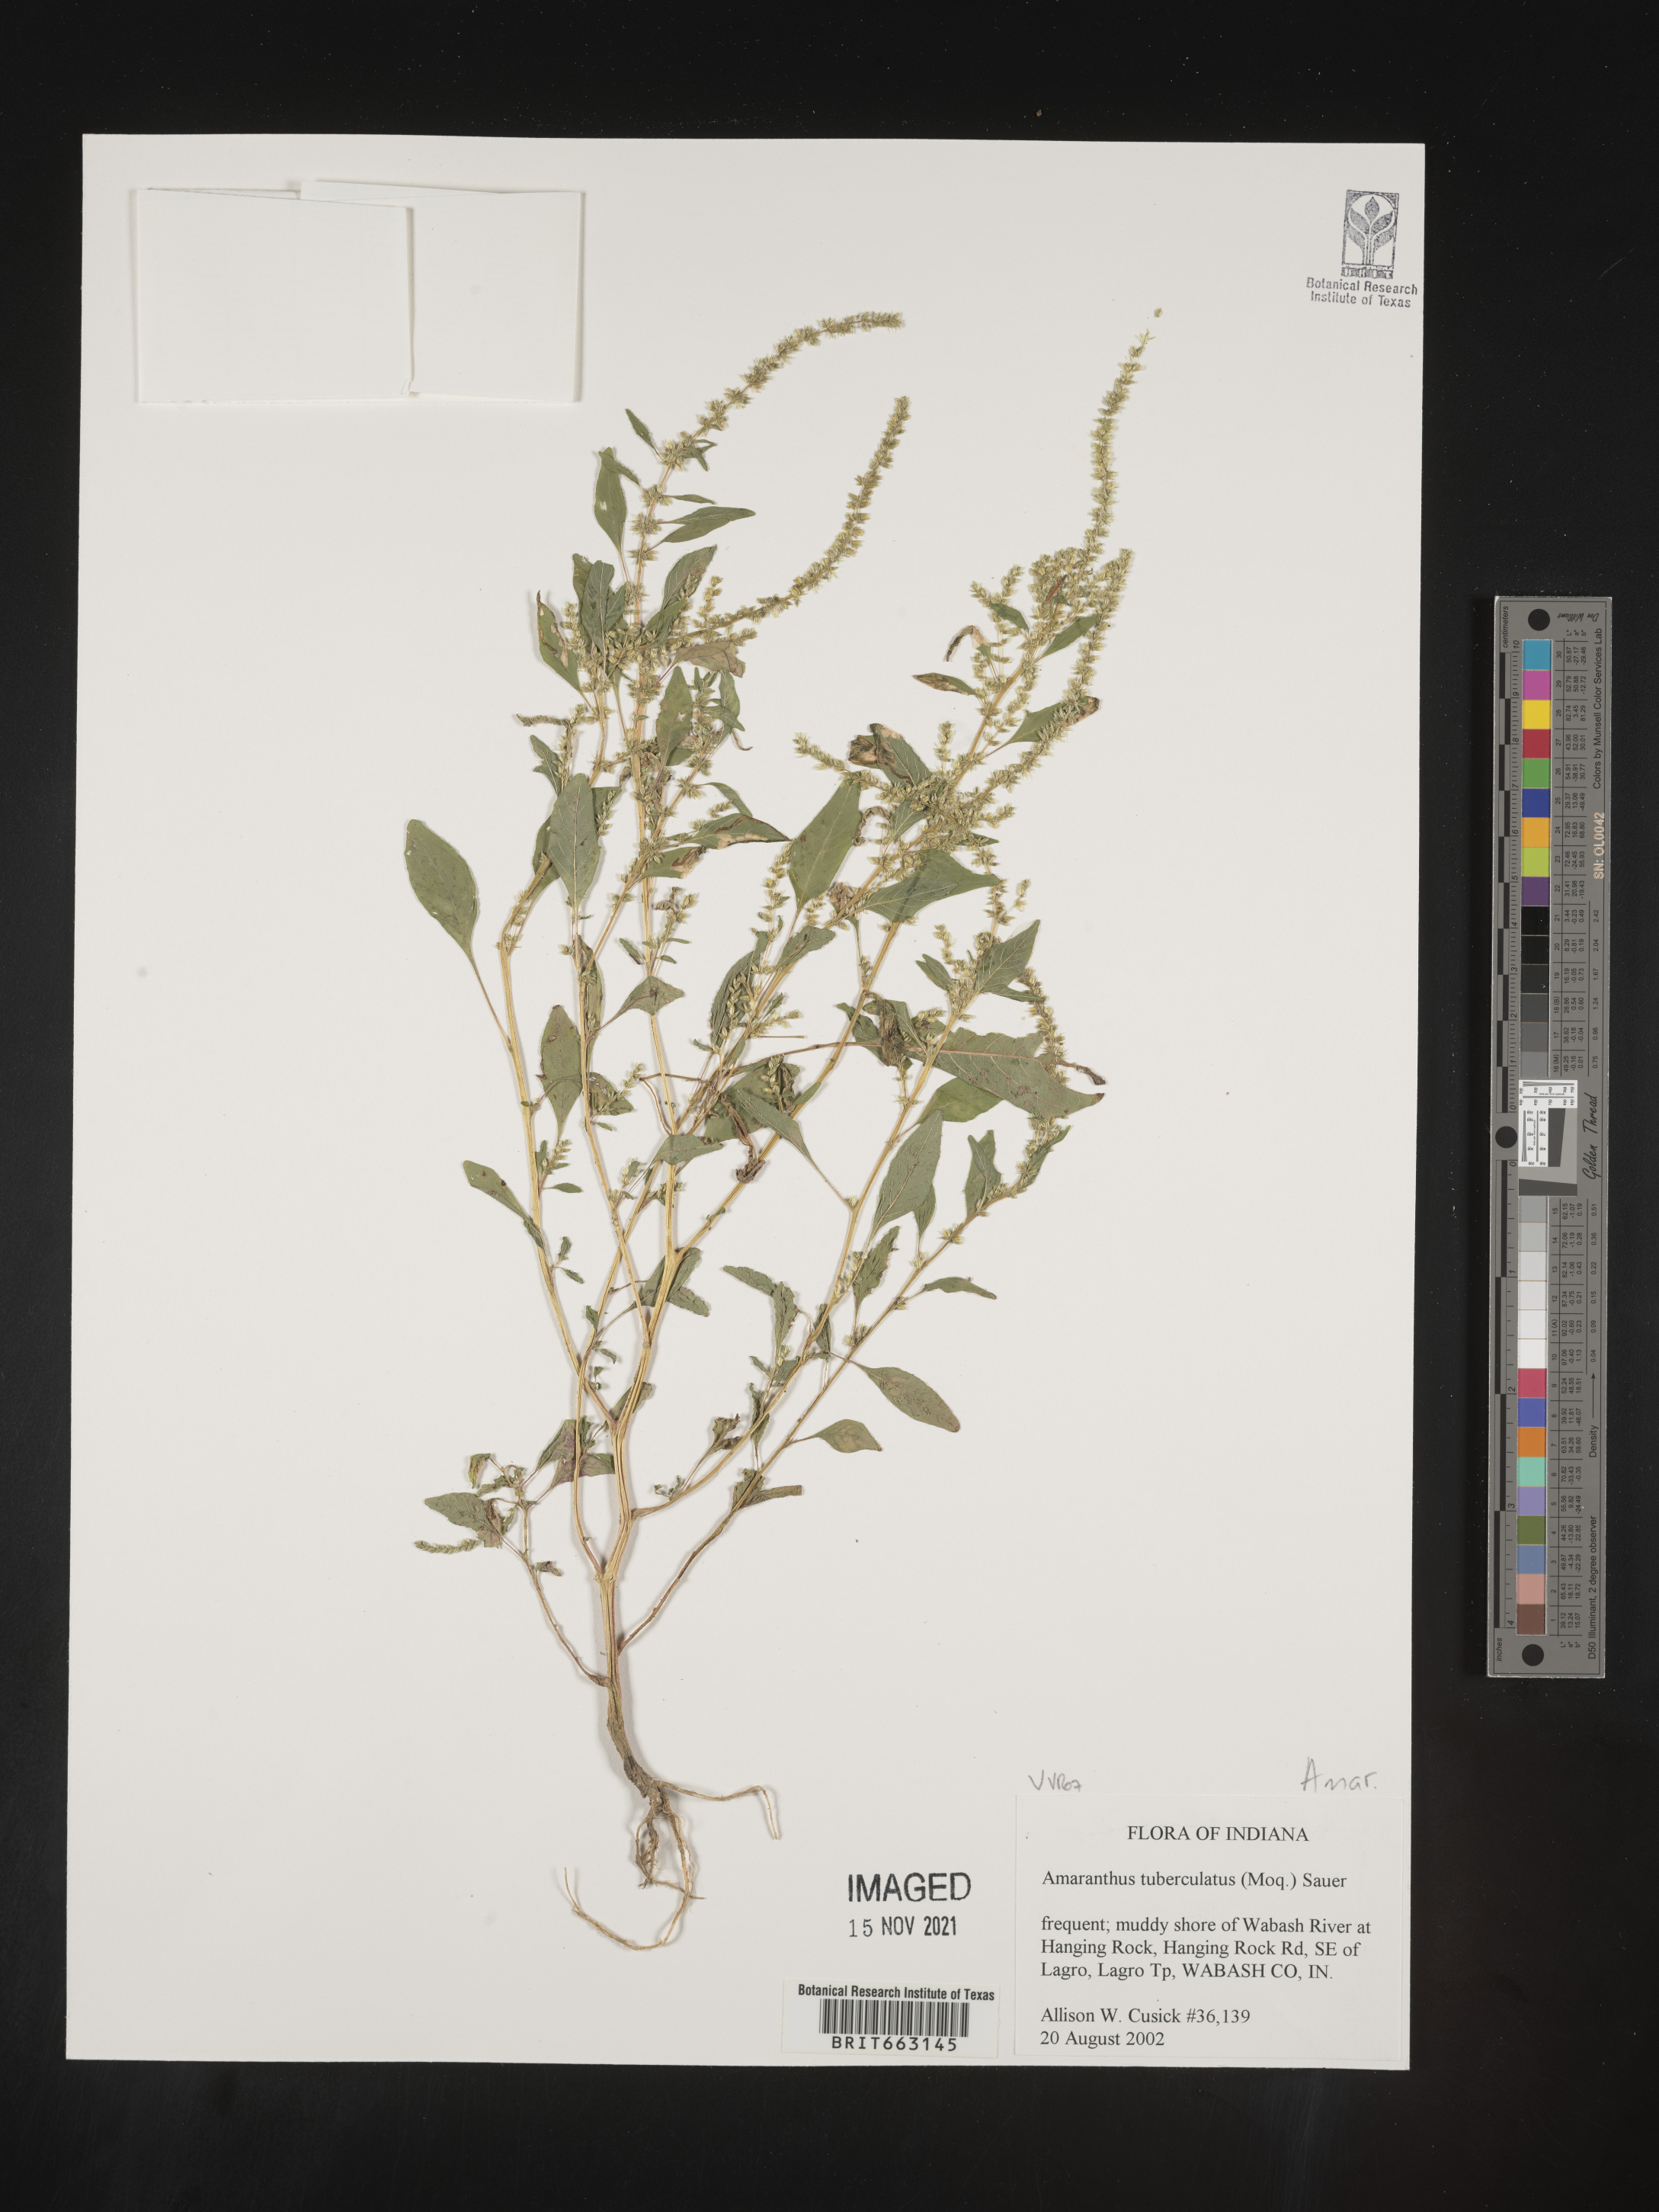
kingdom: Plantae
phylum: Tracheophyta
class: Magnoliopsida
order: Caryophyllales
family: Amaranthaceae
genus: Amaranthus
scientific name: Amaranthus tuberculatus
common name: Rough-fruit amaranth
